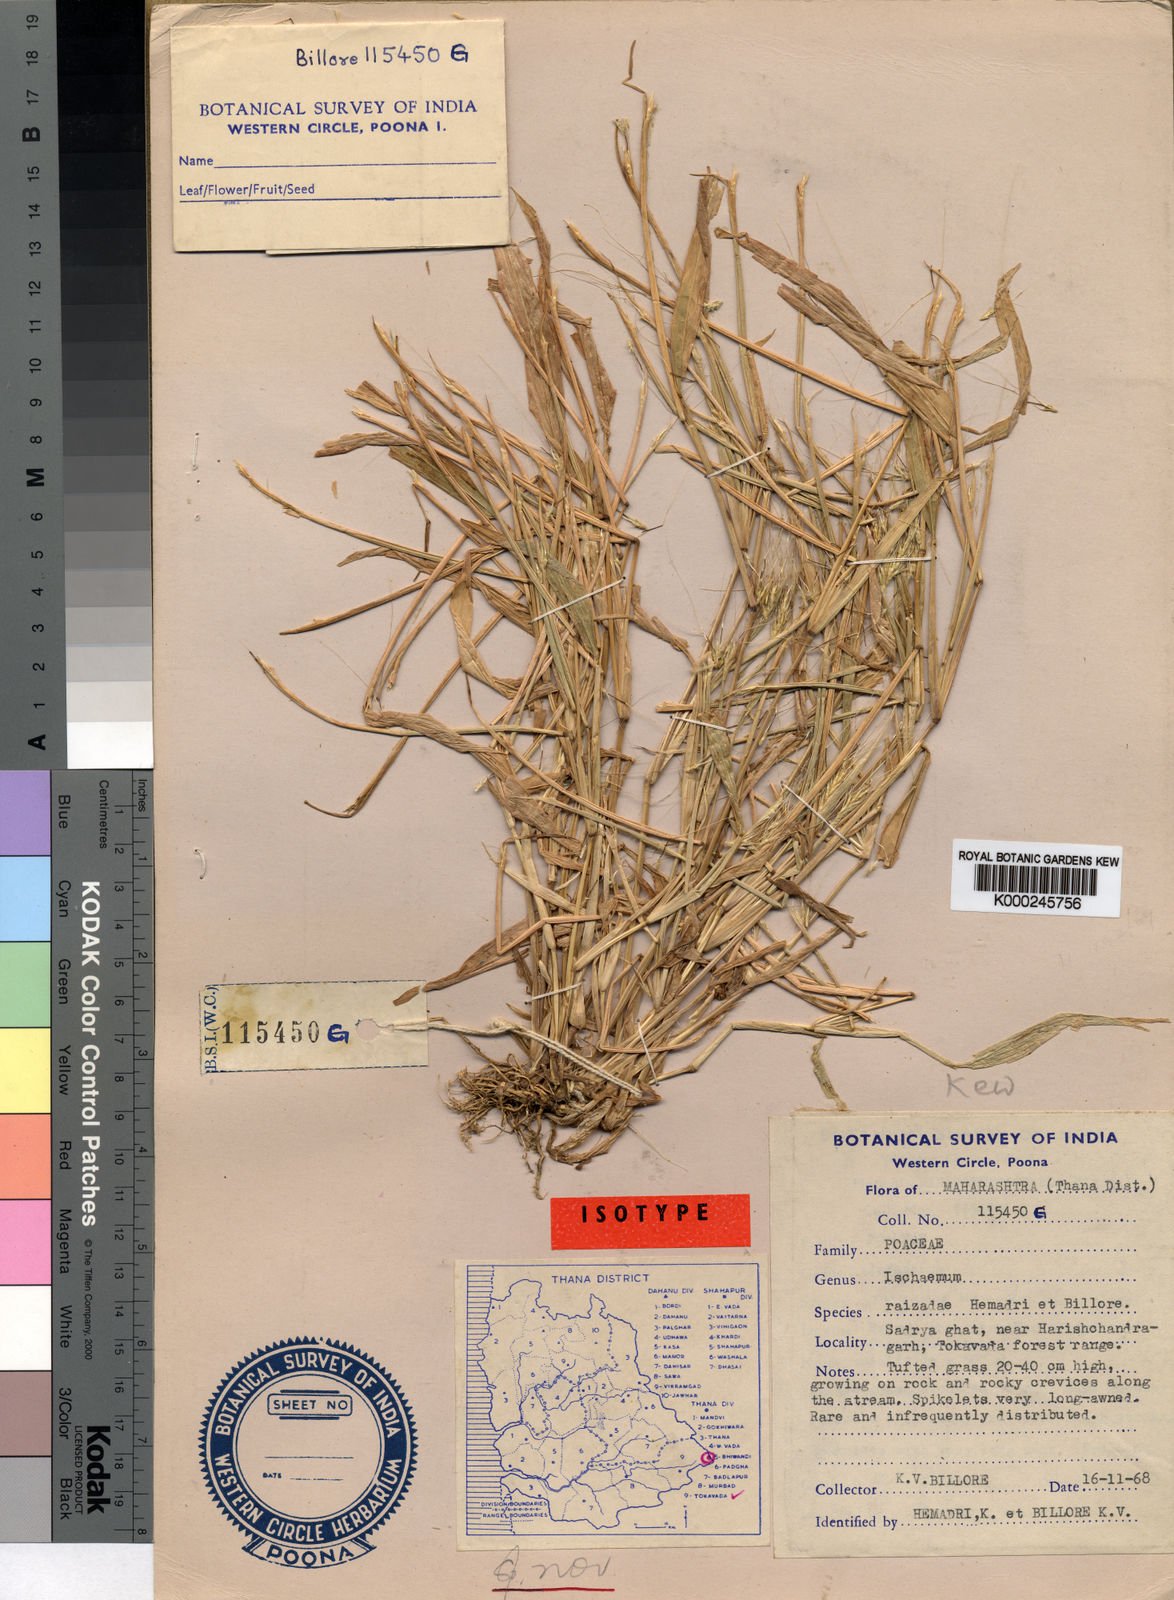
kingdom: Plantae
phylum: Tracheophyta
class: Liliopsida
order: Poales
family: Poaceae
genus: Ischaemum
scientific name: Ischaemum kingii
